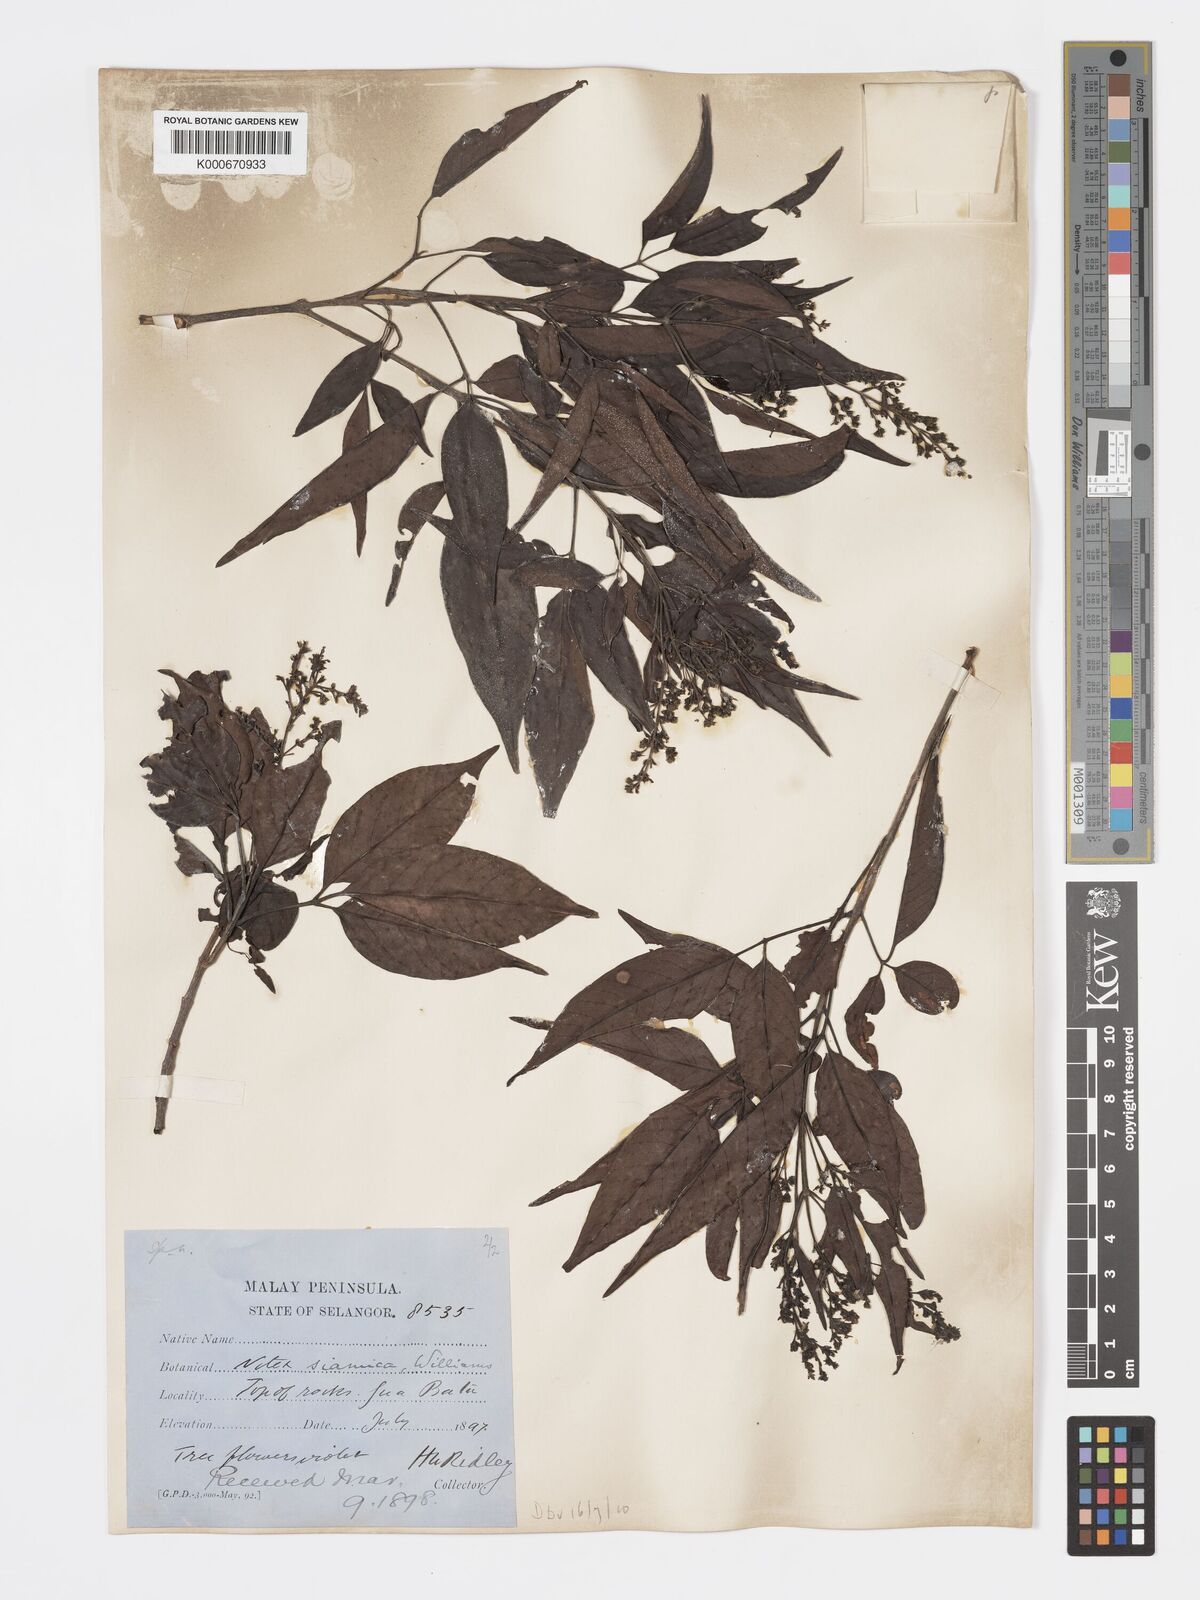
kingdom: Plantae
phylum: Tracheophyta
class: Magnoliopsida
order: Lamiales
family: Lamiaceae
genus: Vitex
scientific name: Vitex siamica
